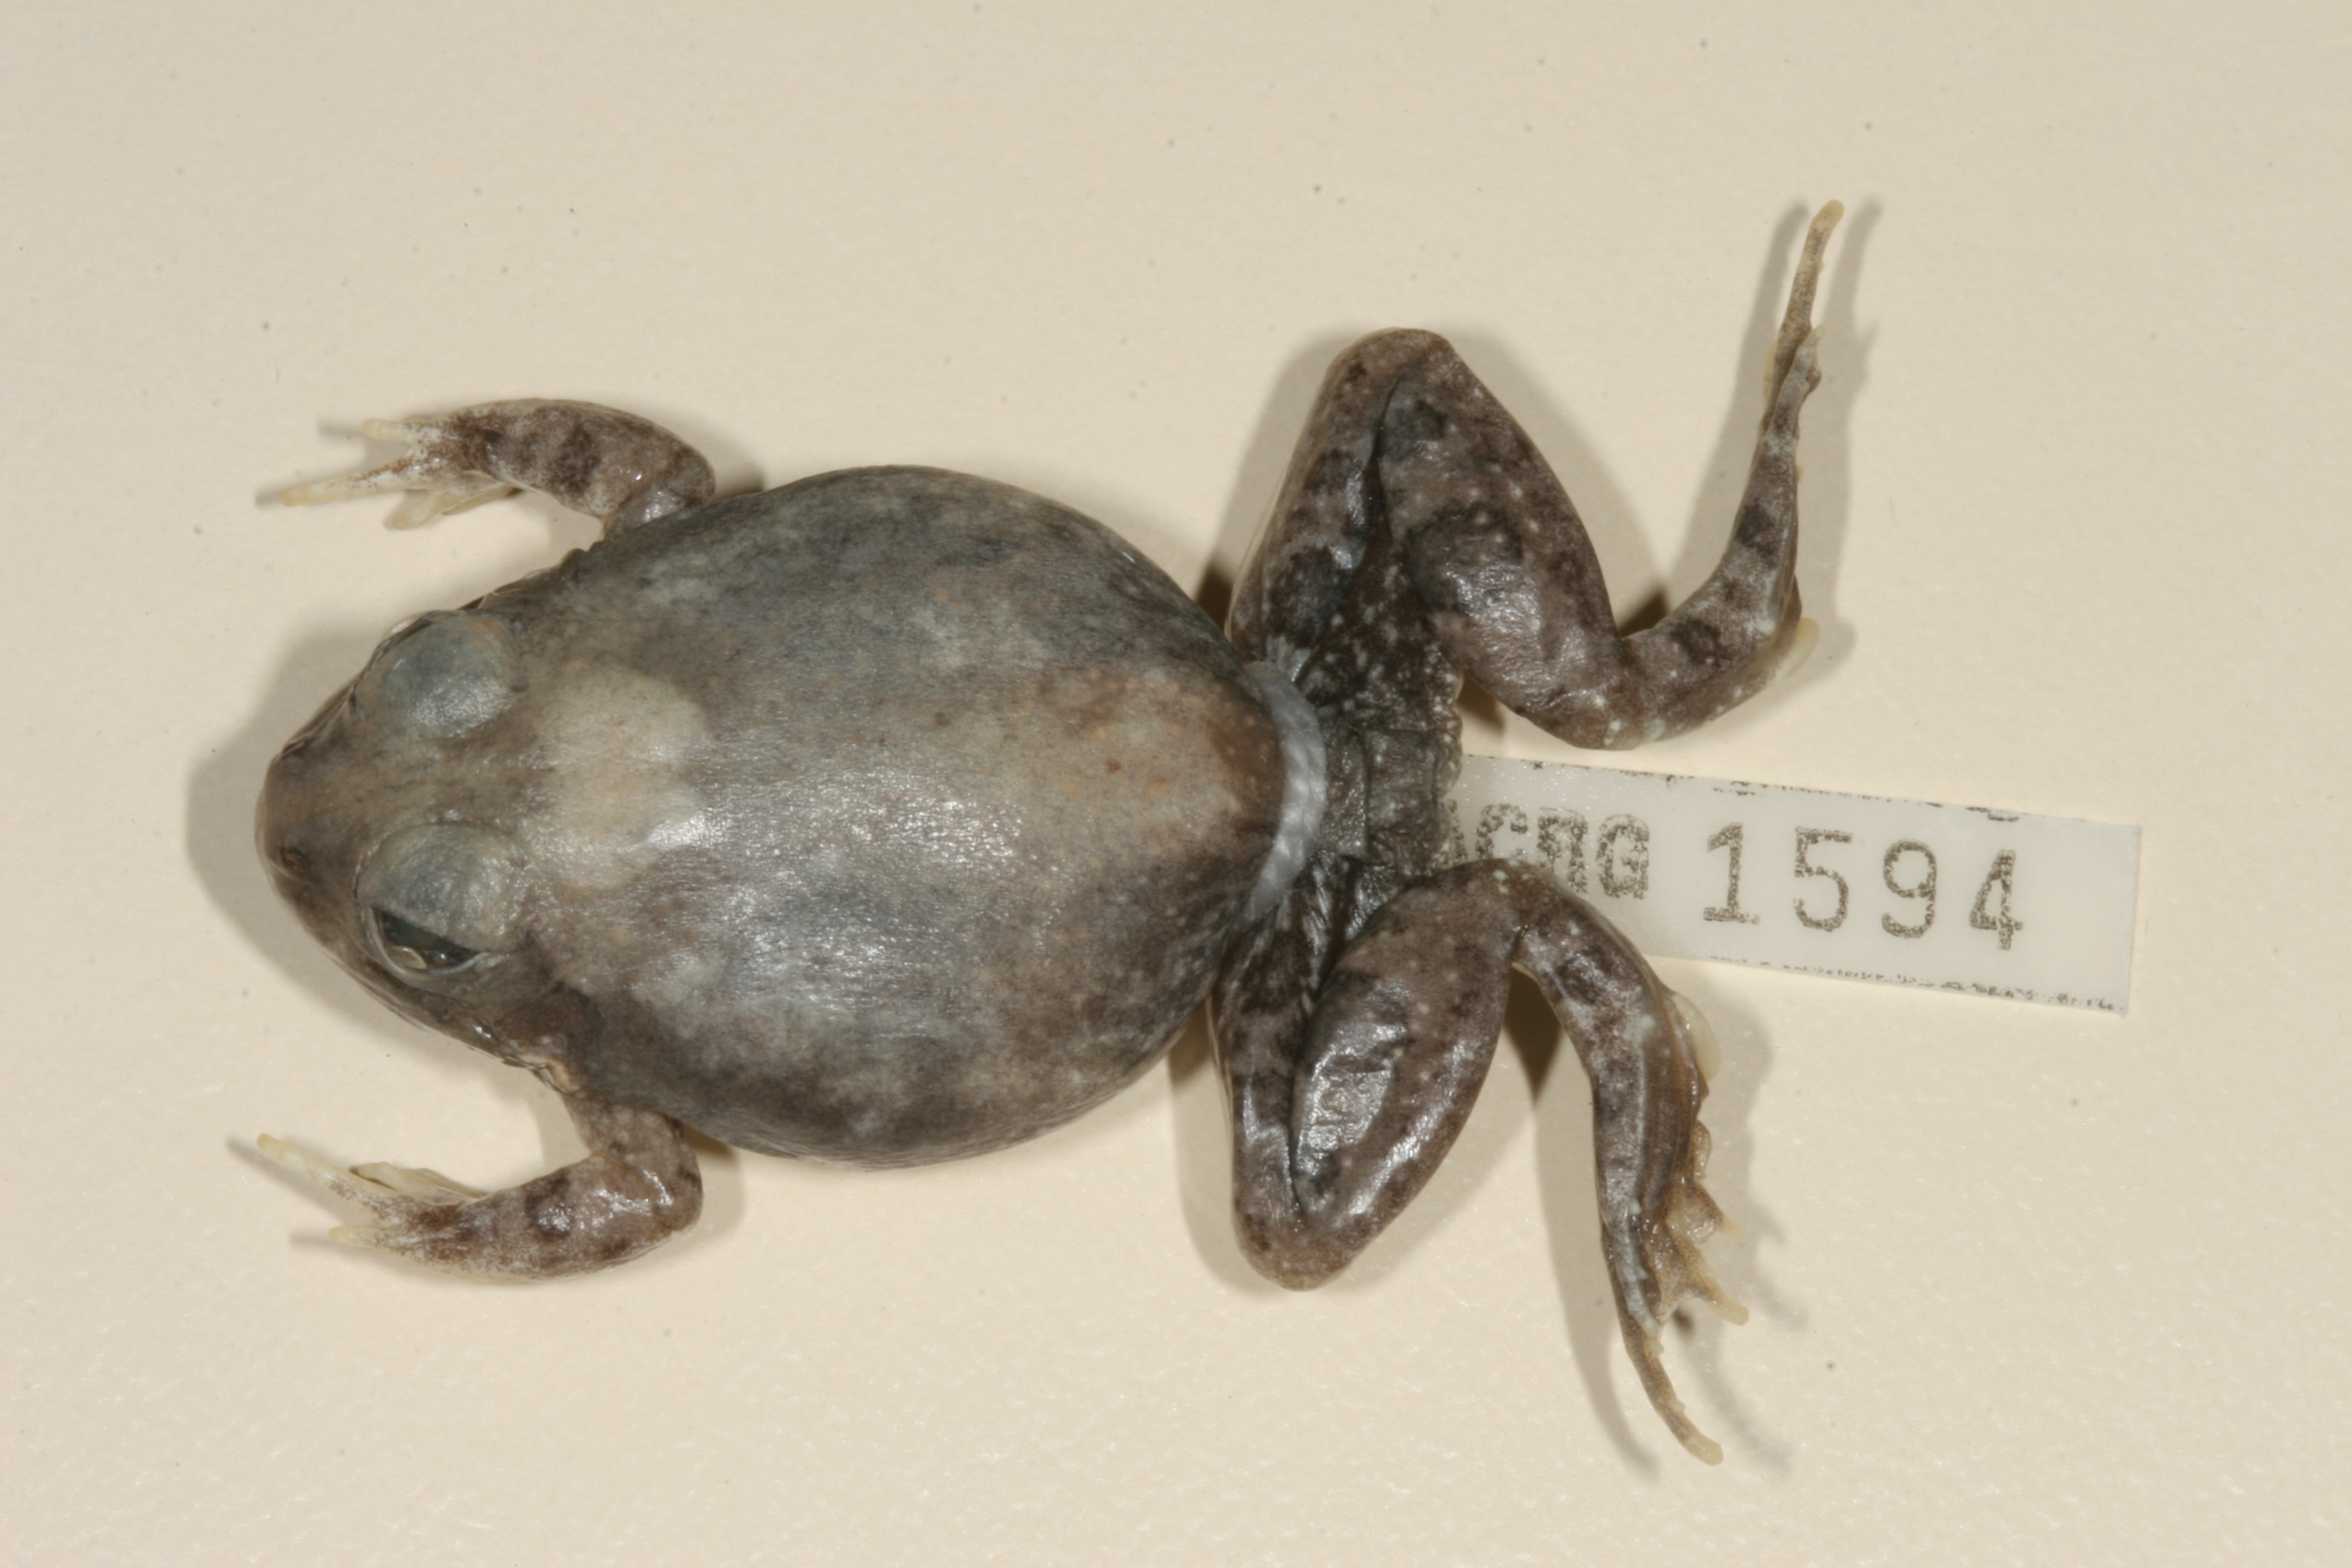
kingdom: Animalia
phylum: Chordata
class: Amphibia
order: Anura
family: Pyxicephalidae
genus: Tomopterna
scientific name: Tomopterna marmorata
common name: Russet-backed sand frog
